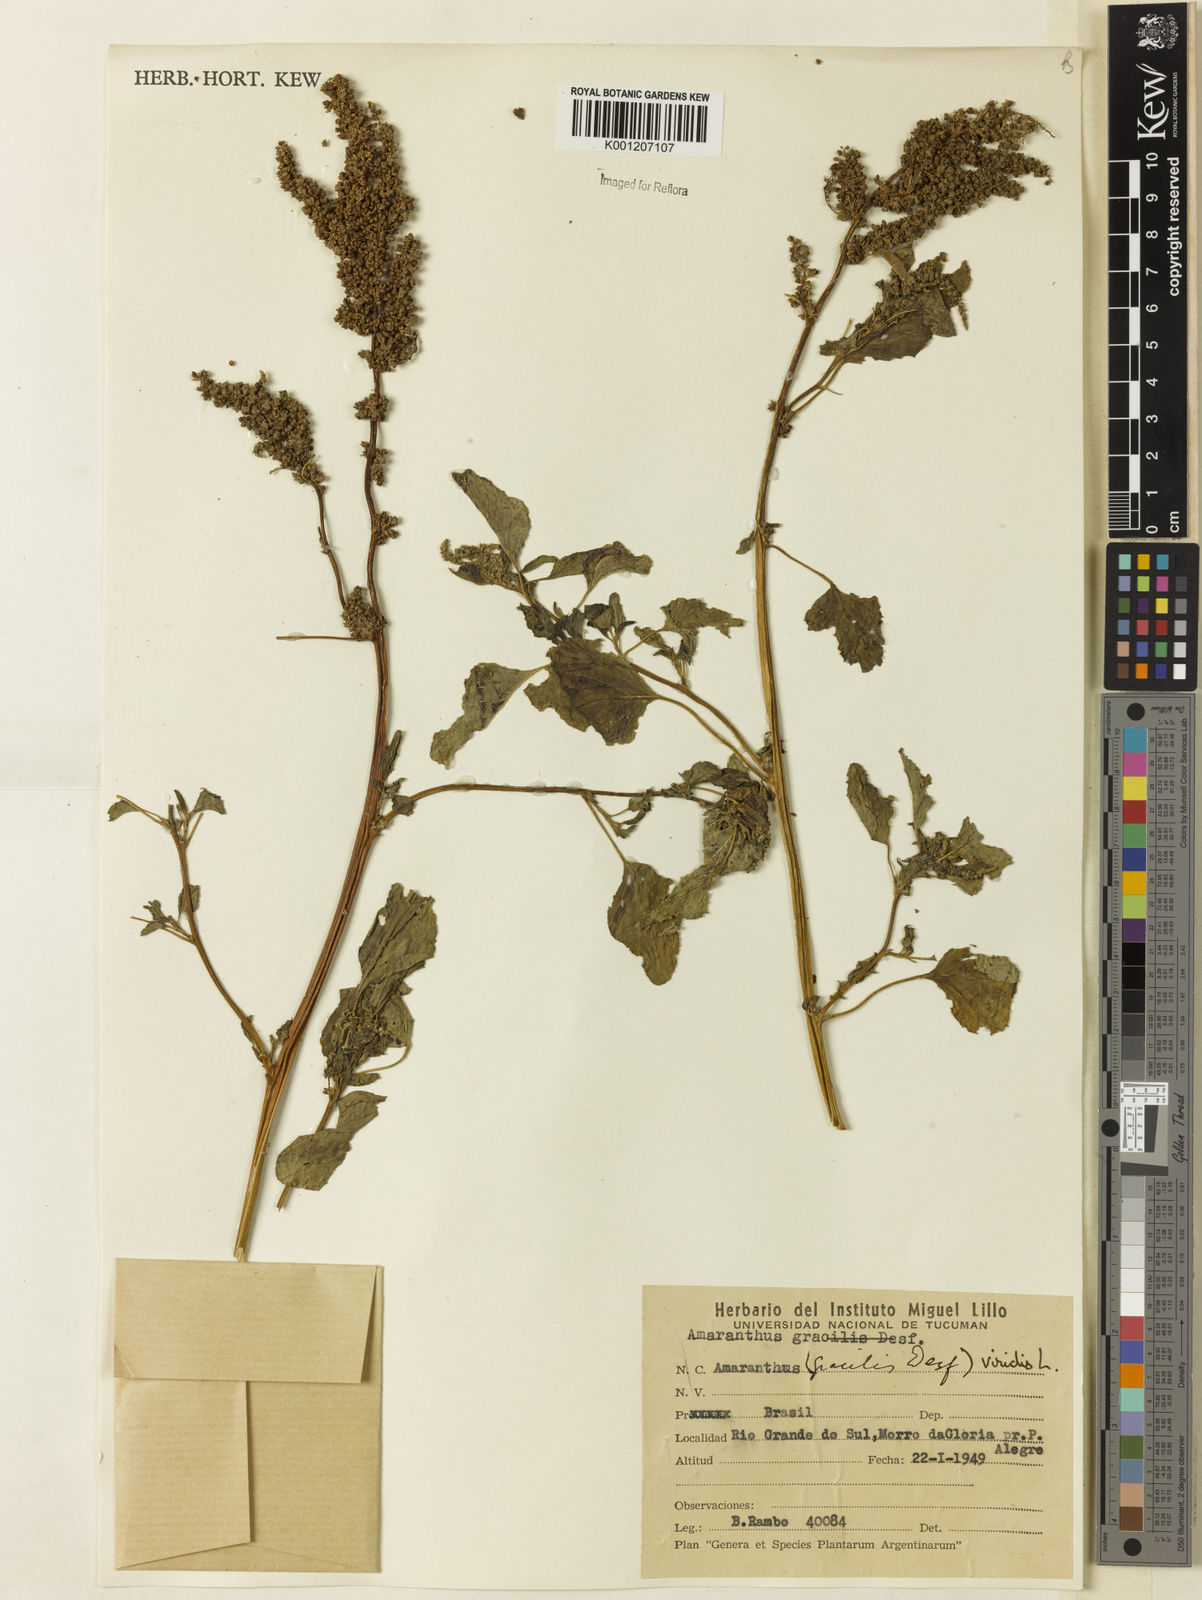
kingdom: Plantae
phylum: Tracheophyta
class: Magnoliopsida
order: Caryophyllales
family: Amaranthaceae
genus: Amaranthus
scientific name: Amaranthus viridis
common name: Slender amaranth
